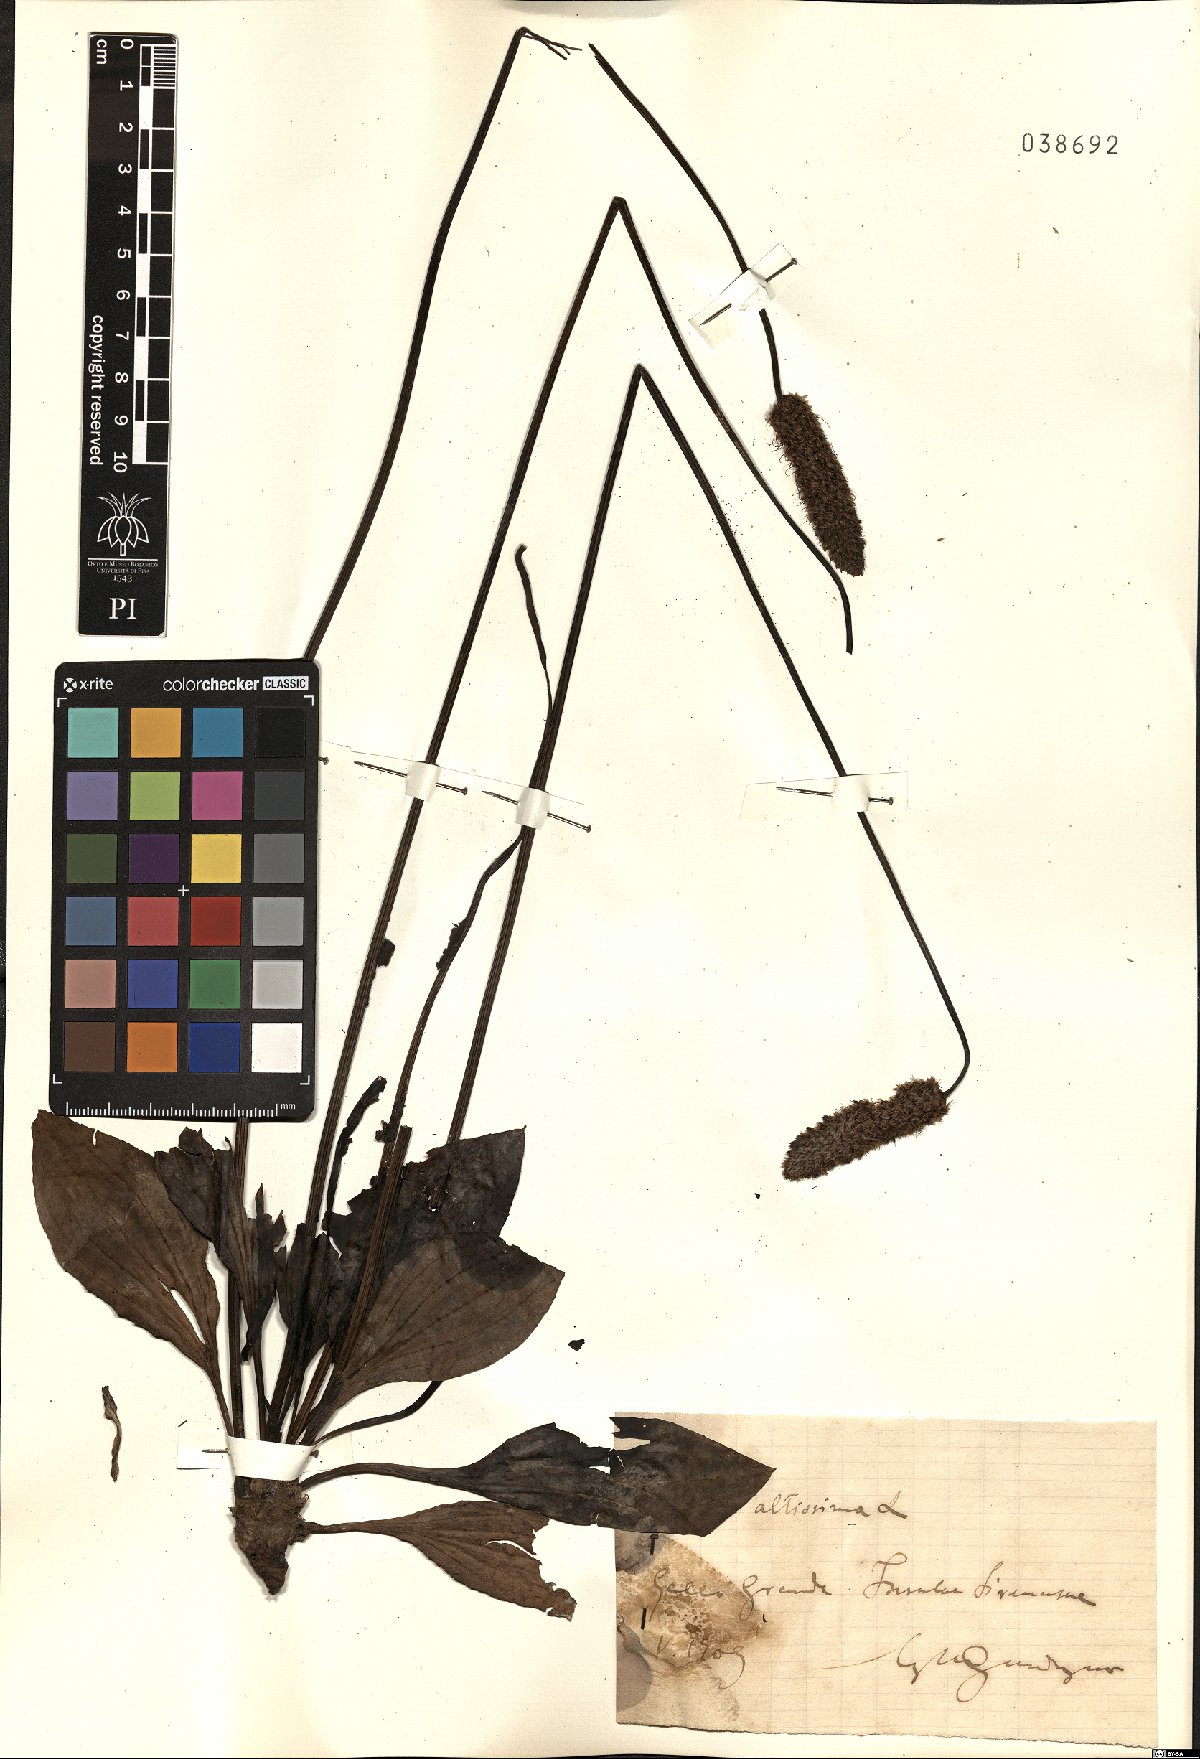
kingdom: Plantae
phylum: Tracheophyta
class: Magnoliopsida
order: Lamiales
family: Plantaginaceae
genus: Plantago
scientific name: Plantago altissima
